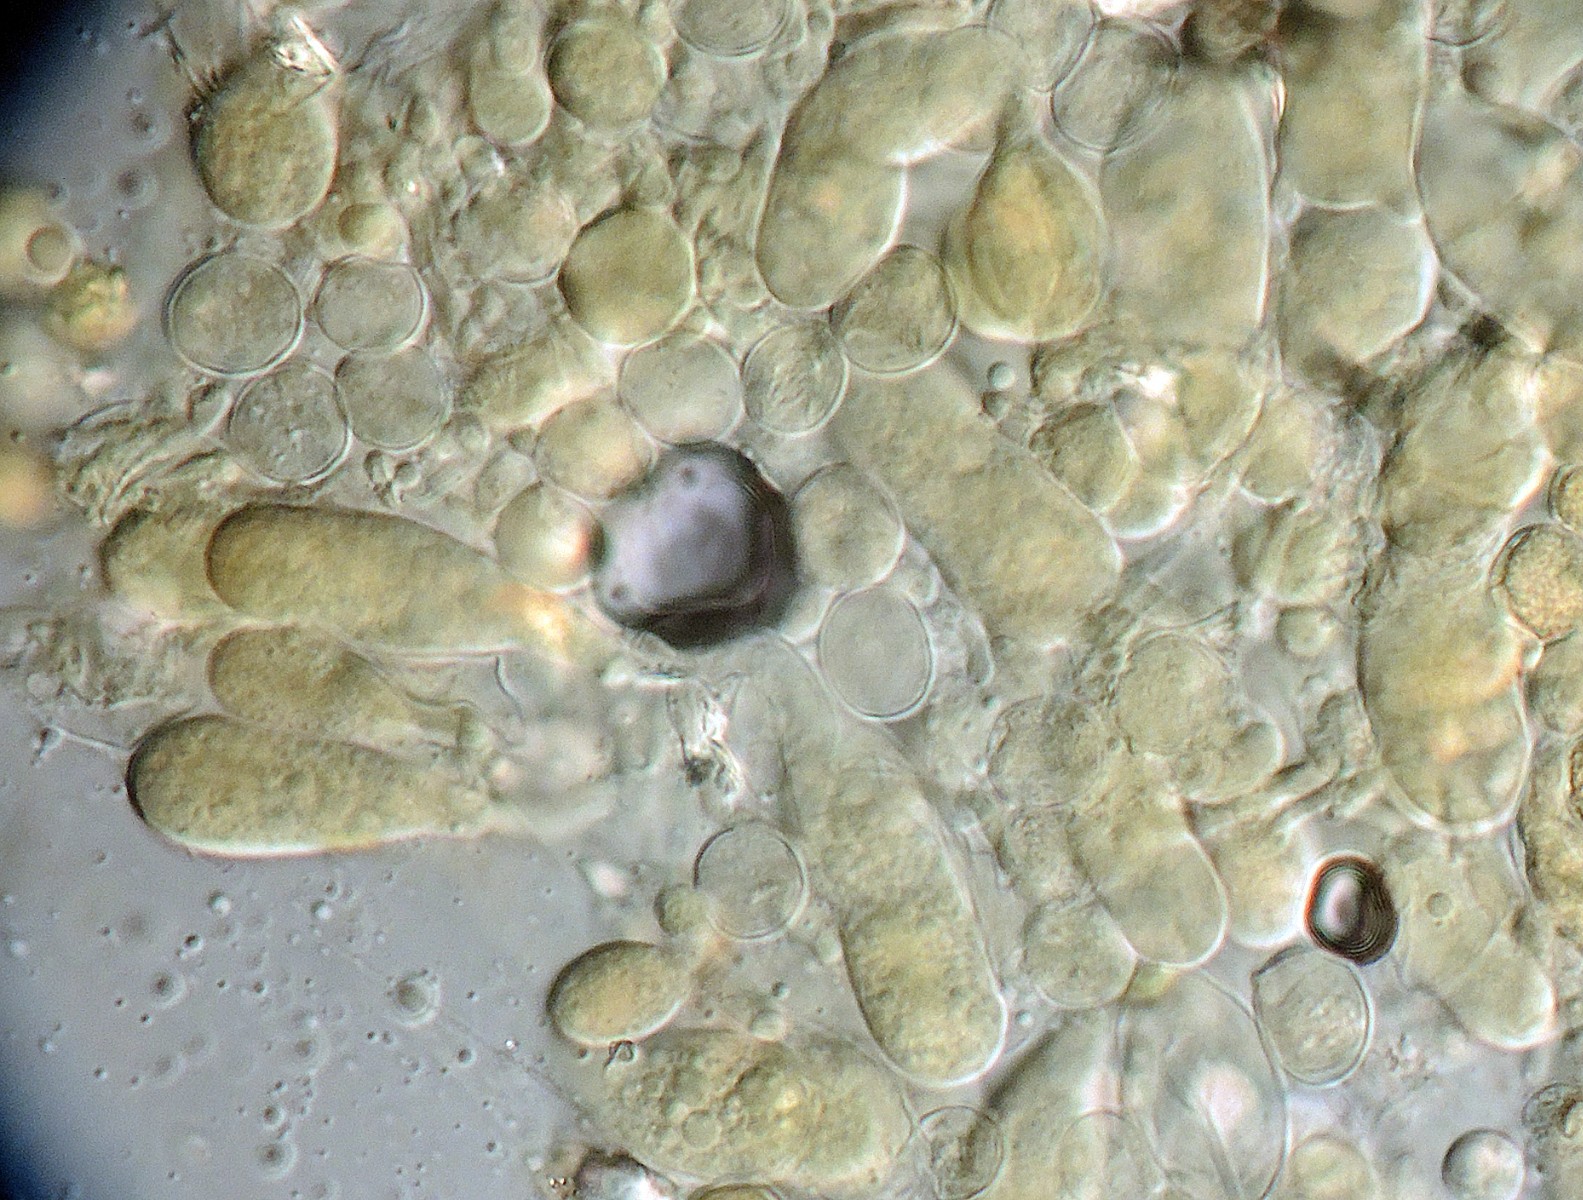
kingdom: Fungi
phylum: Basidiomycota
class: Agaricomycetes
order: Hymenochaetales
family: Rickenellaceae
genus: Globulicium
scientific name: Globulicium hiemale
